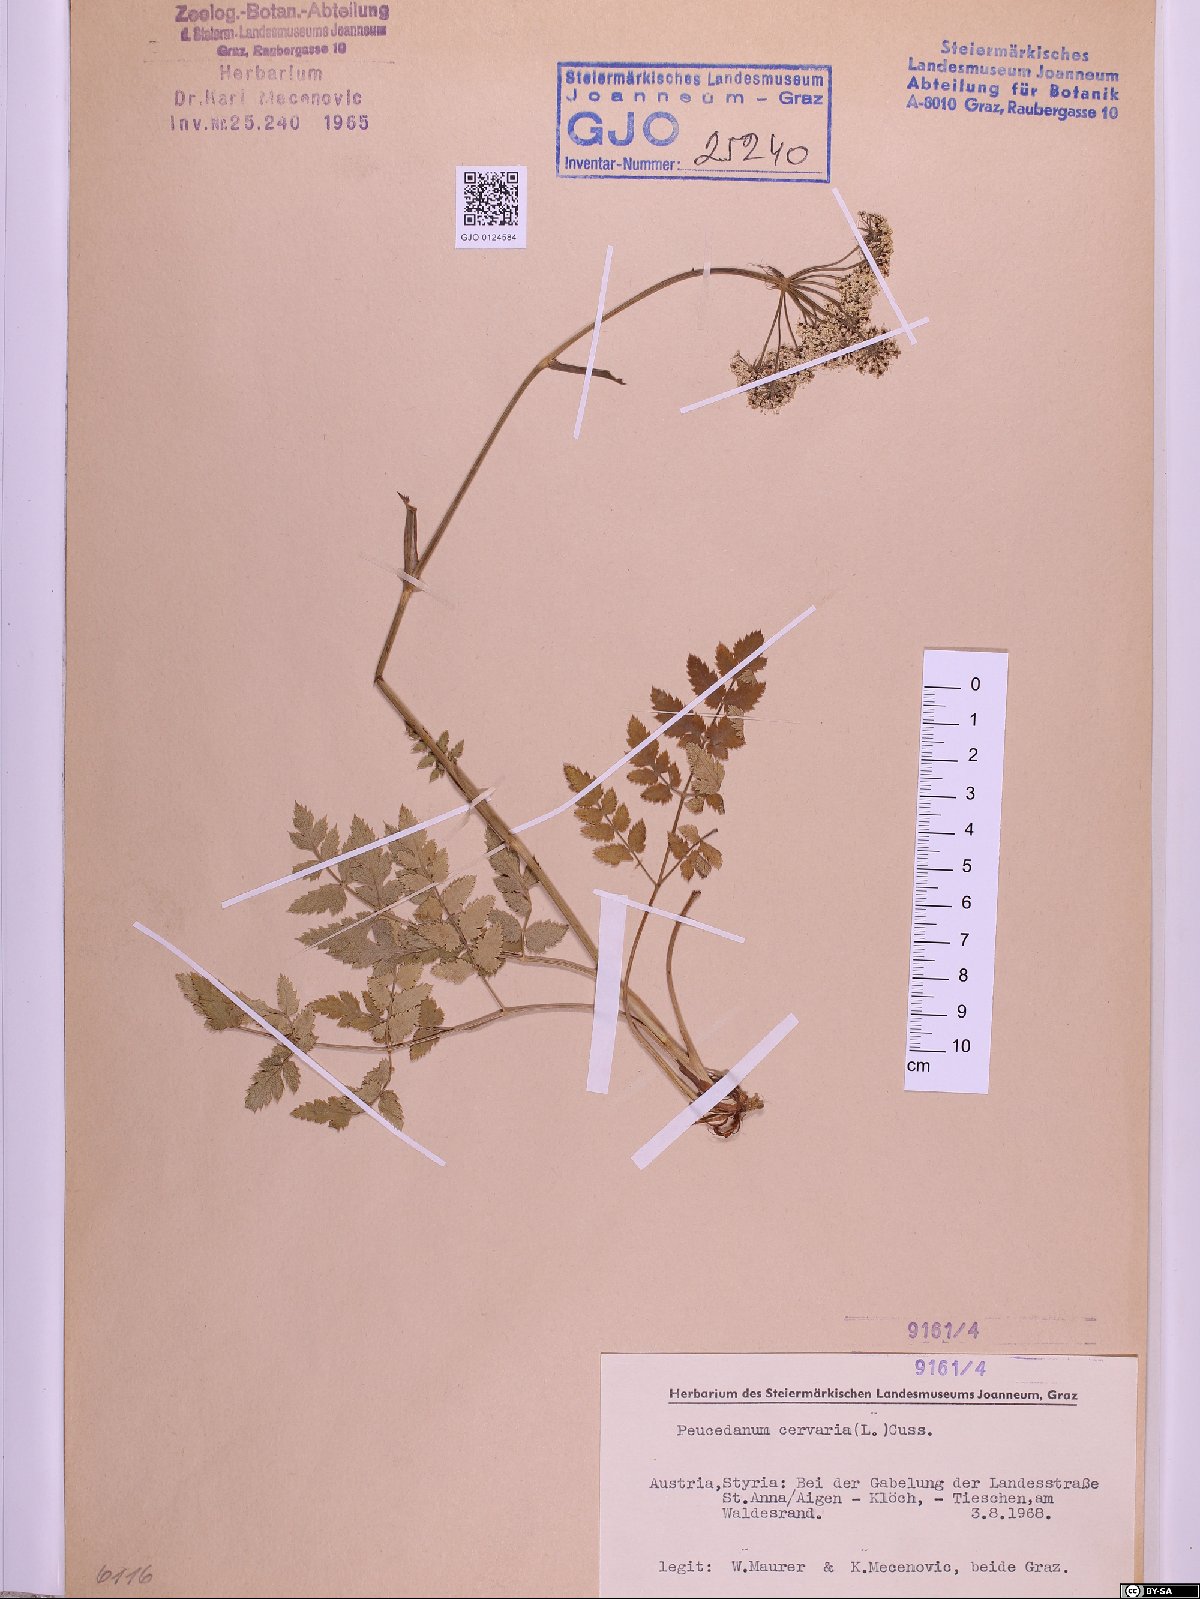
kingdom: Plantae
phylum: Tracheophyta
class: Magnoliopsida
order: Apiales
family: Apiaceae
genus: Cervaria
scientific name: Cervaria rivini
